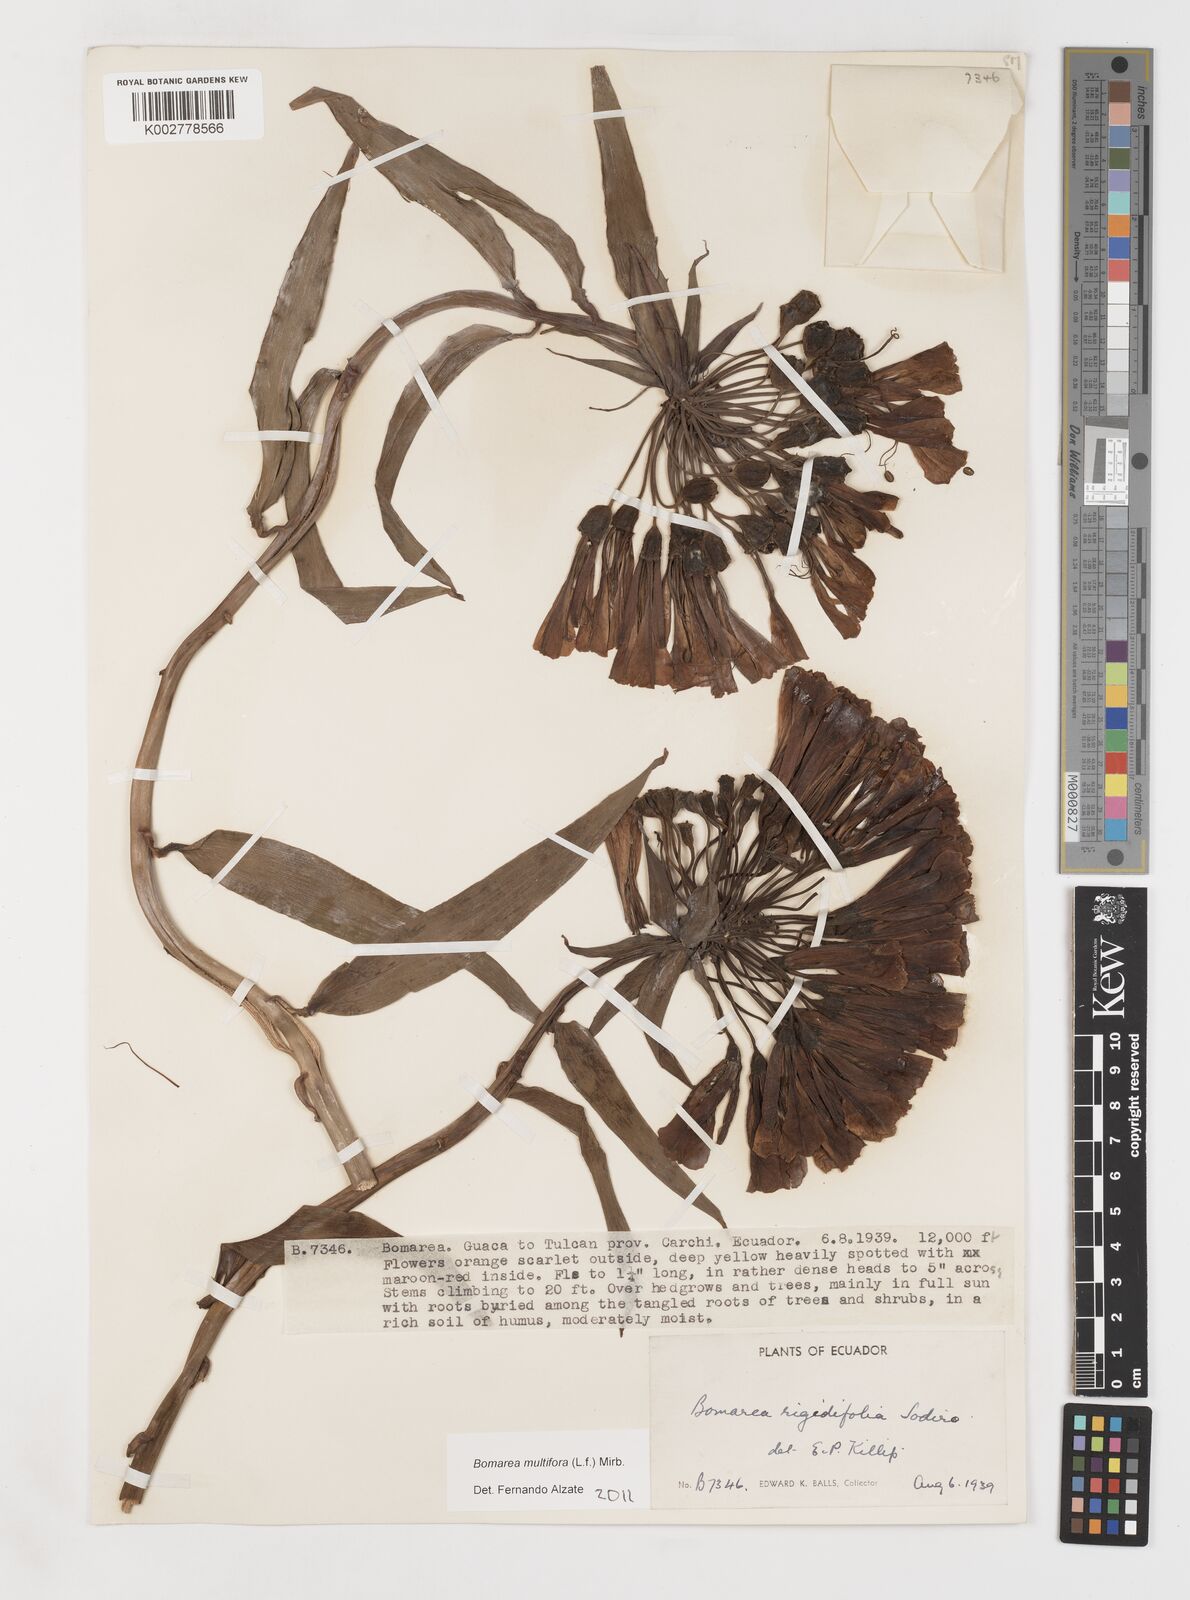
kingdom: Plantae
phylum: Tracheophyta
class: Liliopsida
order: Liliales
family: Alstroemeriaceae
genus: Bomarea
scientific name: Bomarea multiflora
